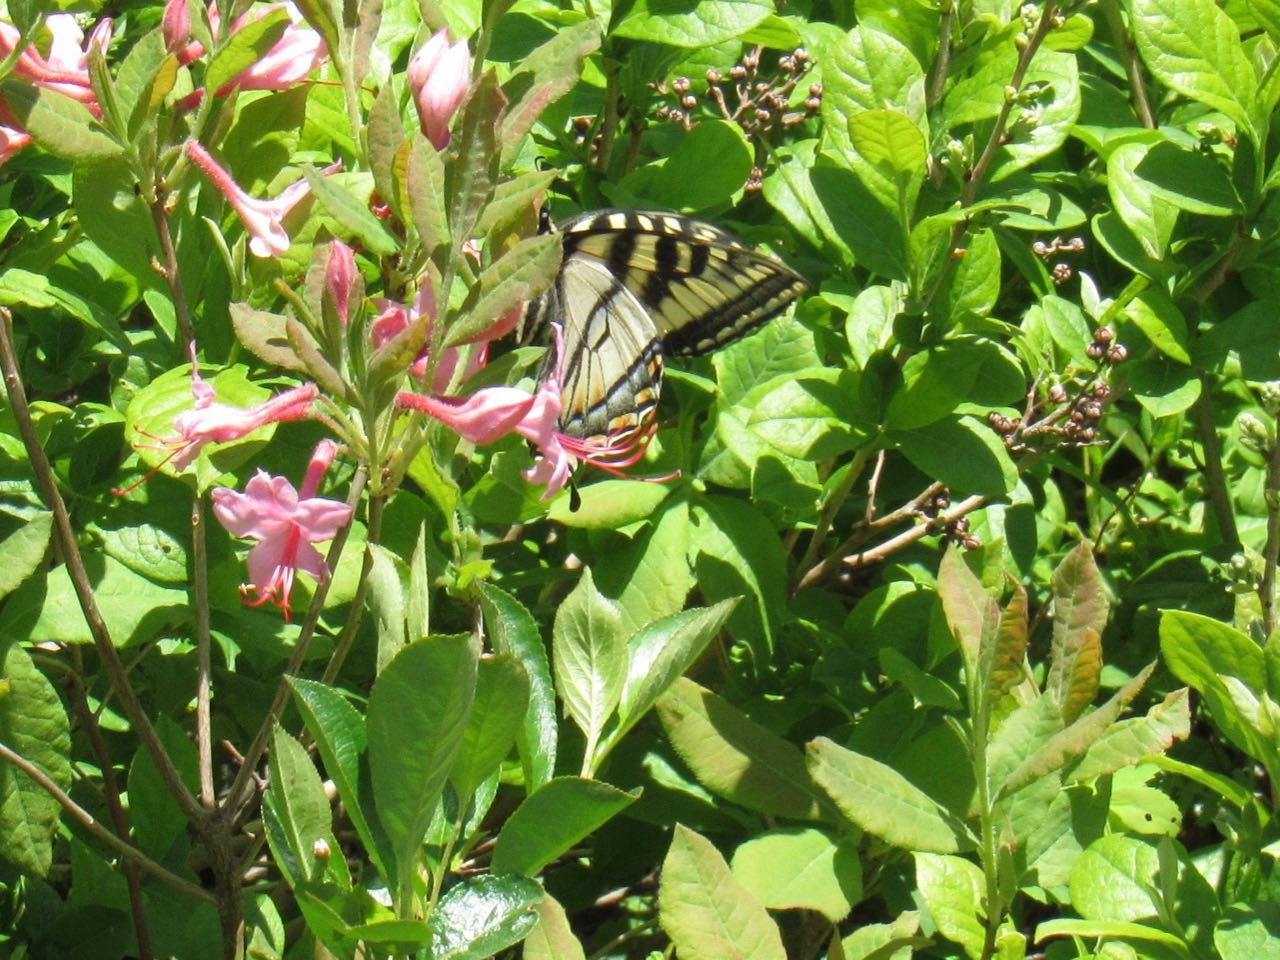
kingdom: Animalia
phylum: Arthropoda
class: Insecta
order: Lepidoptera
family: Papilionidae
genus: Pterourus
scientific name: Pterourus canadensis
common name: Canadian Tiger Swallowtail
